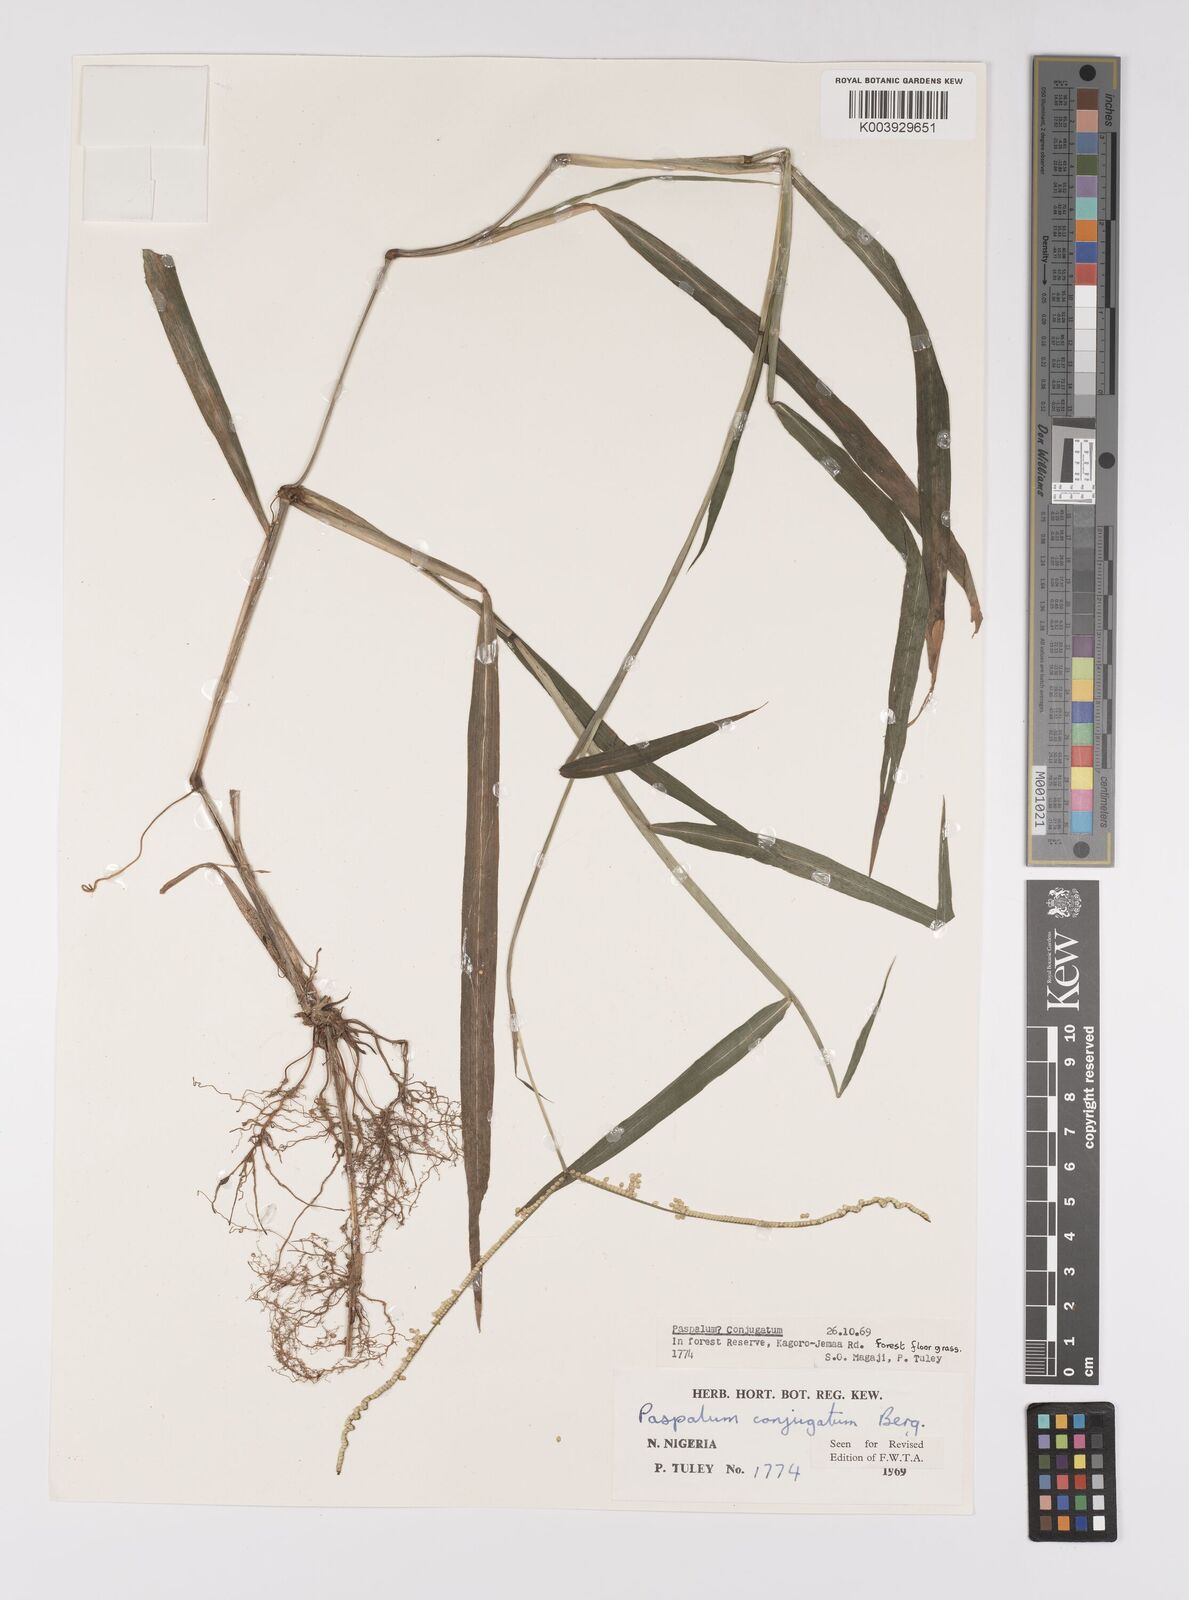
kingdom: Plantae
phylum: Tracheophyta
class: Liliopsida
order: Poales
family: Poaceae
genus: Paspalum
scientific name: Paspalum conjugatum
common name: Hilograss
